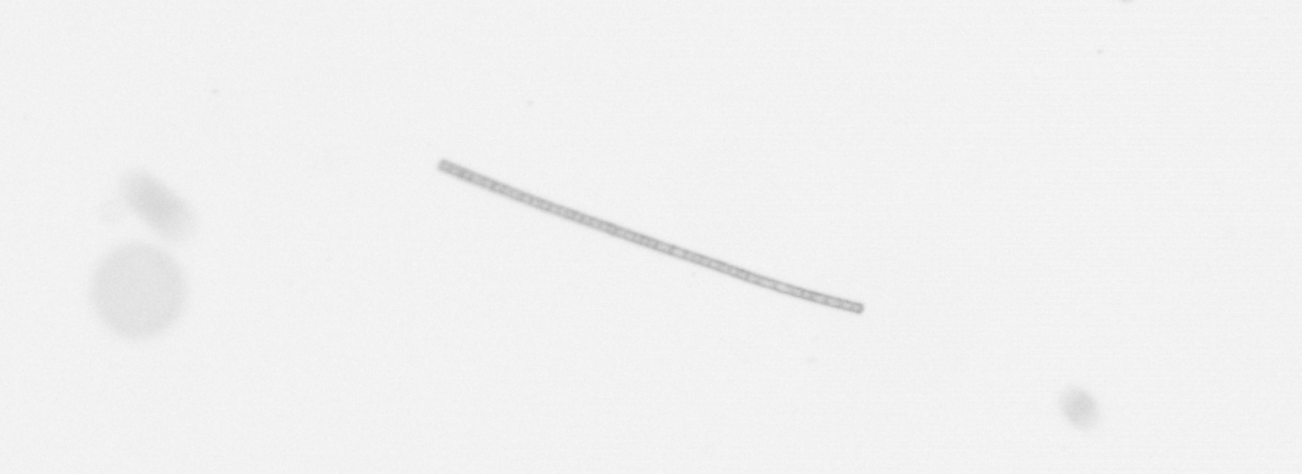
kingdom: Chromista
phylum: Ochrophyta
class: Bacillariophyceae
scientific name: Bacillariophyceae
